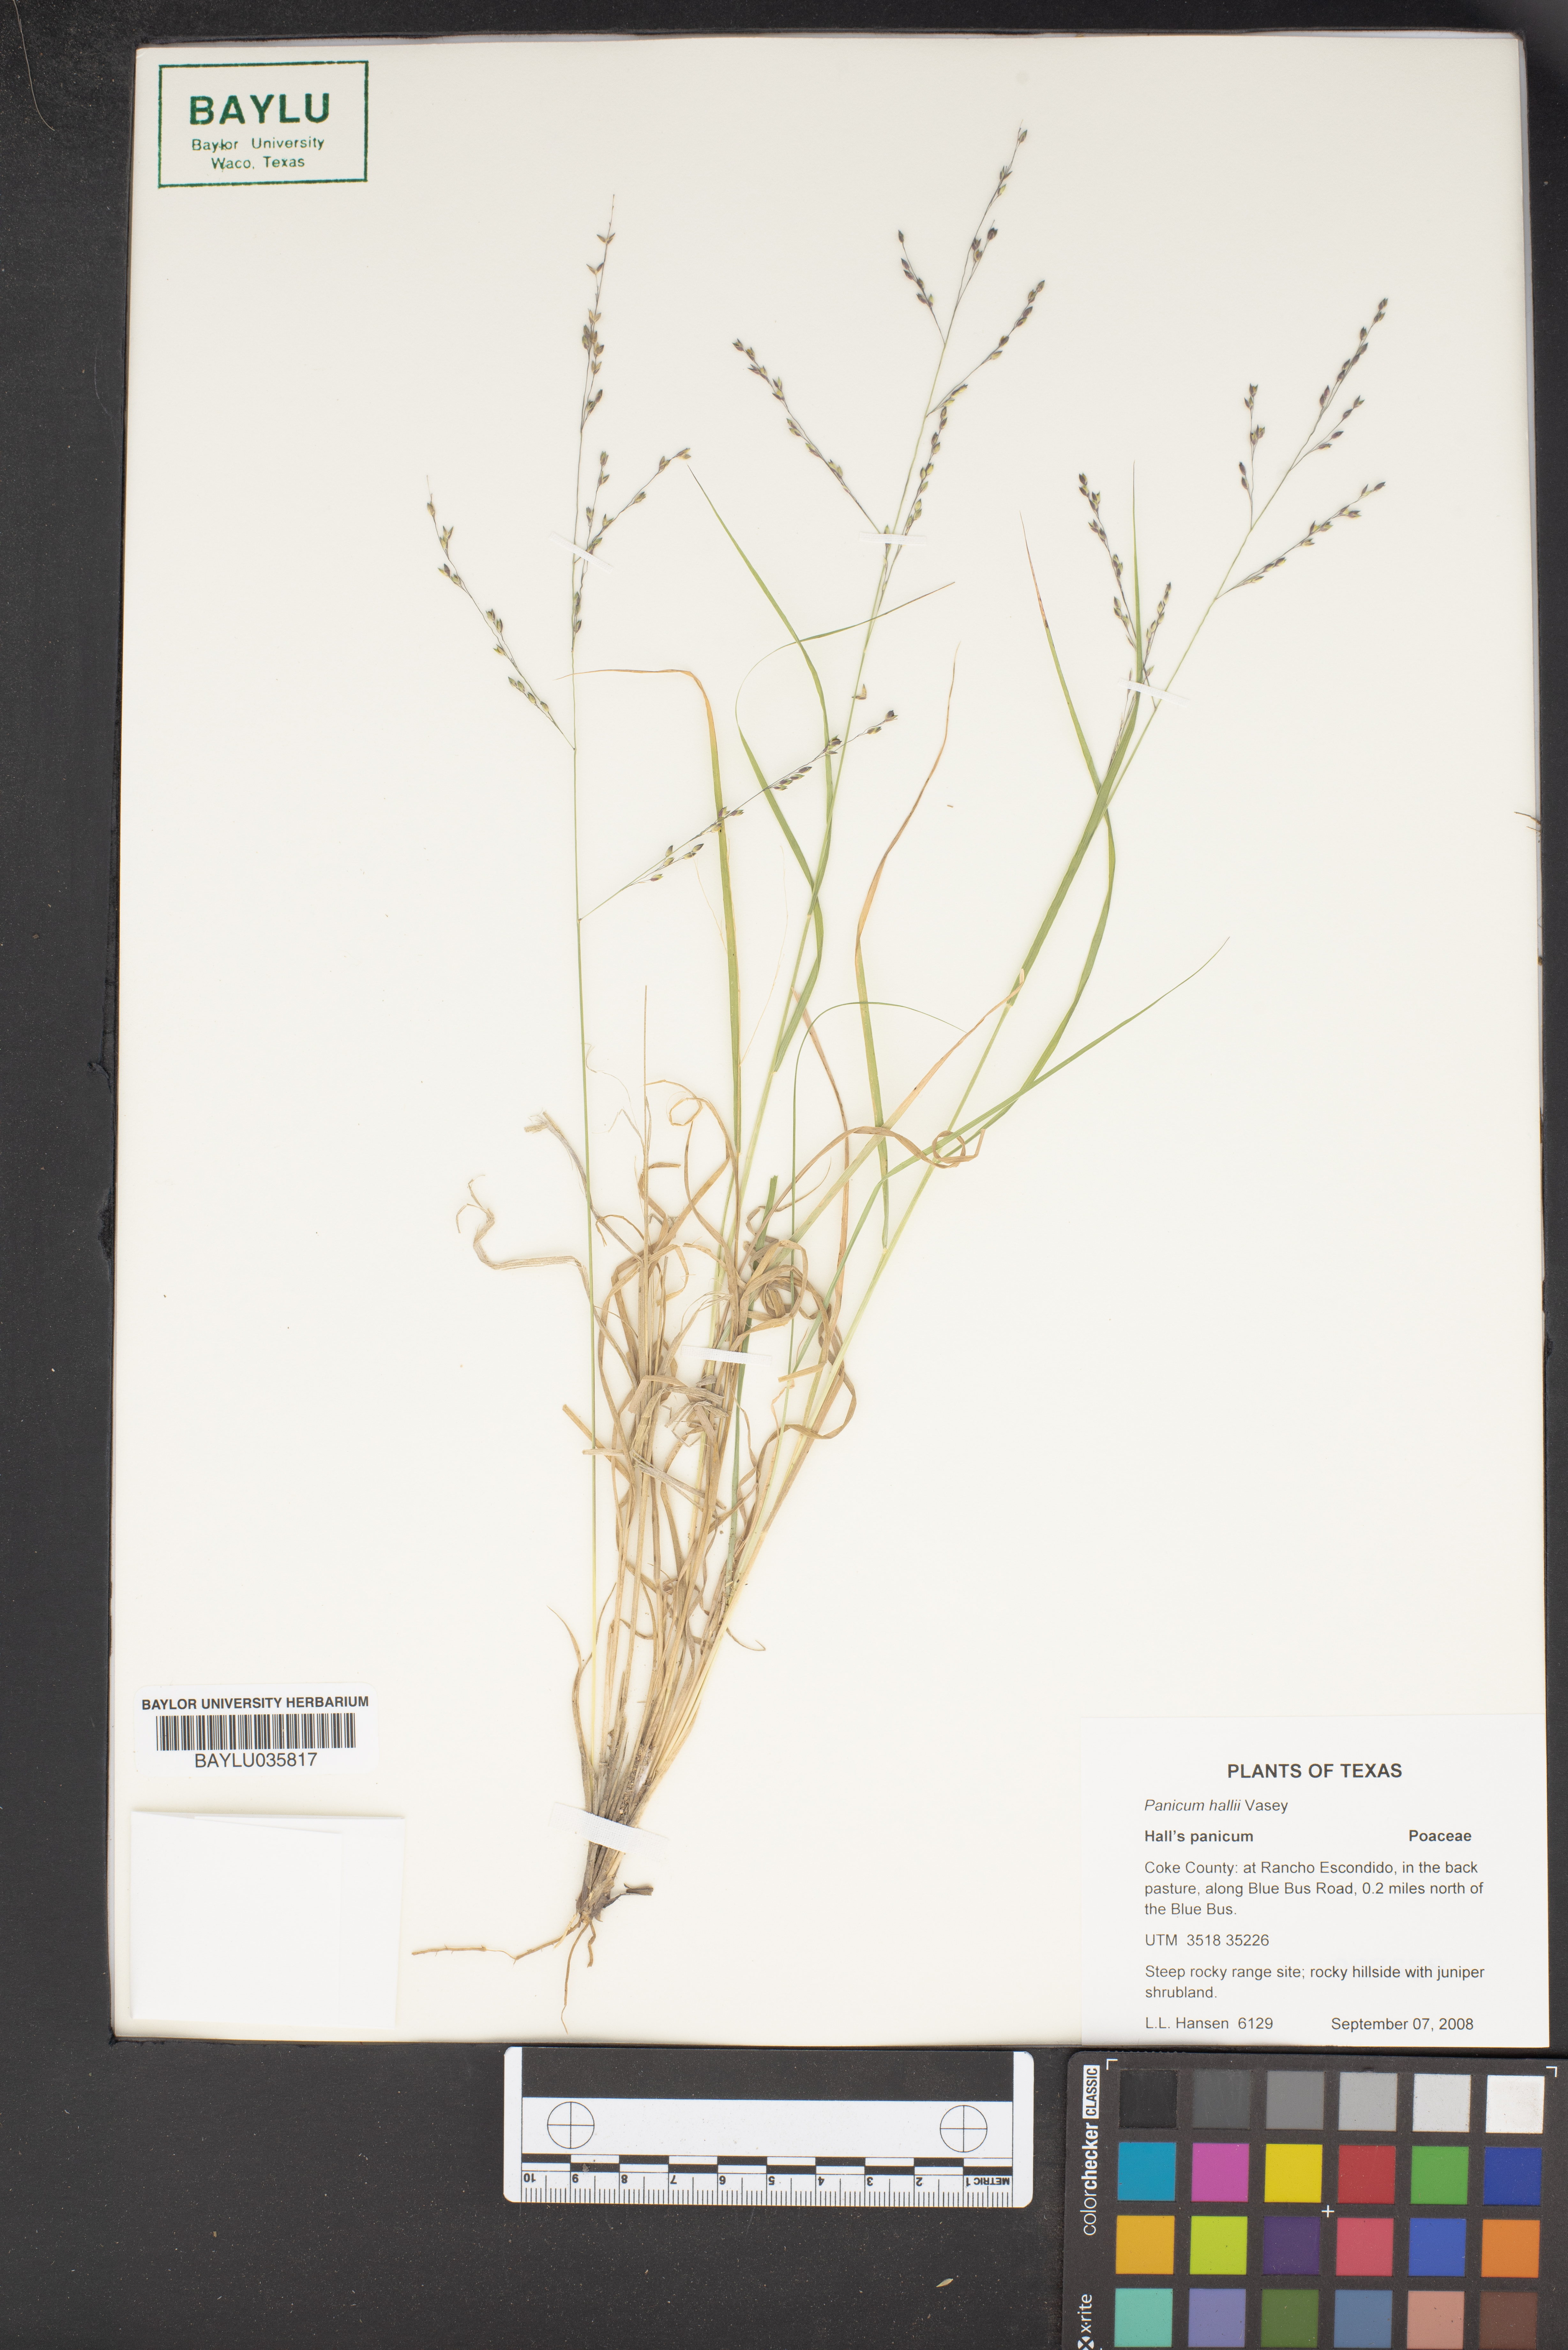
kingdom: Plantae
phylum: Tracheophyta
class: Liliopsida
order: Poales
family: Poaceae
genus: Panicum
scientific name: Panicum hallii
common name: Hall's witchgrass
